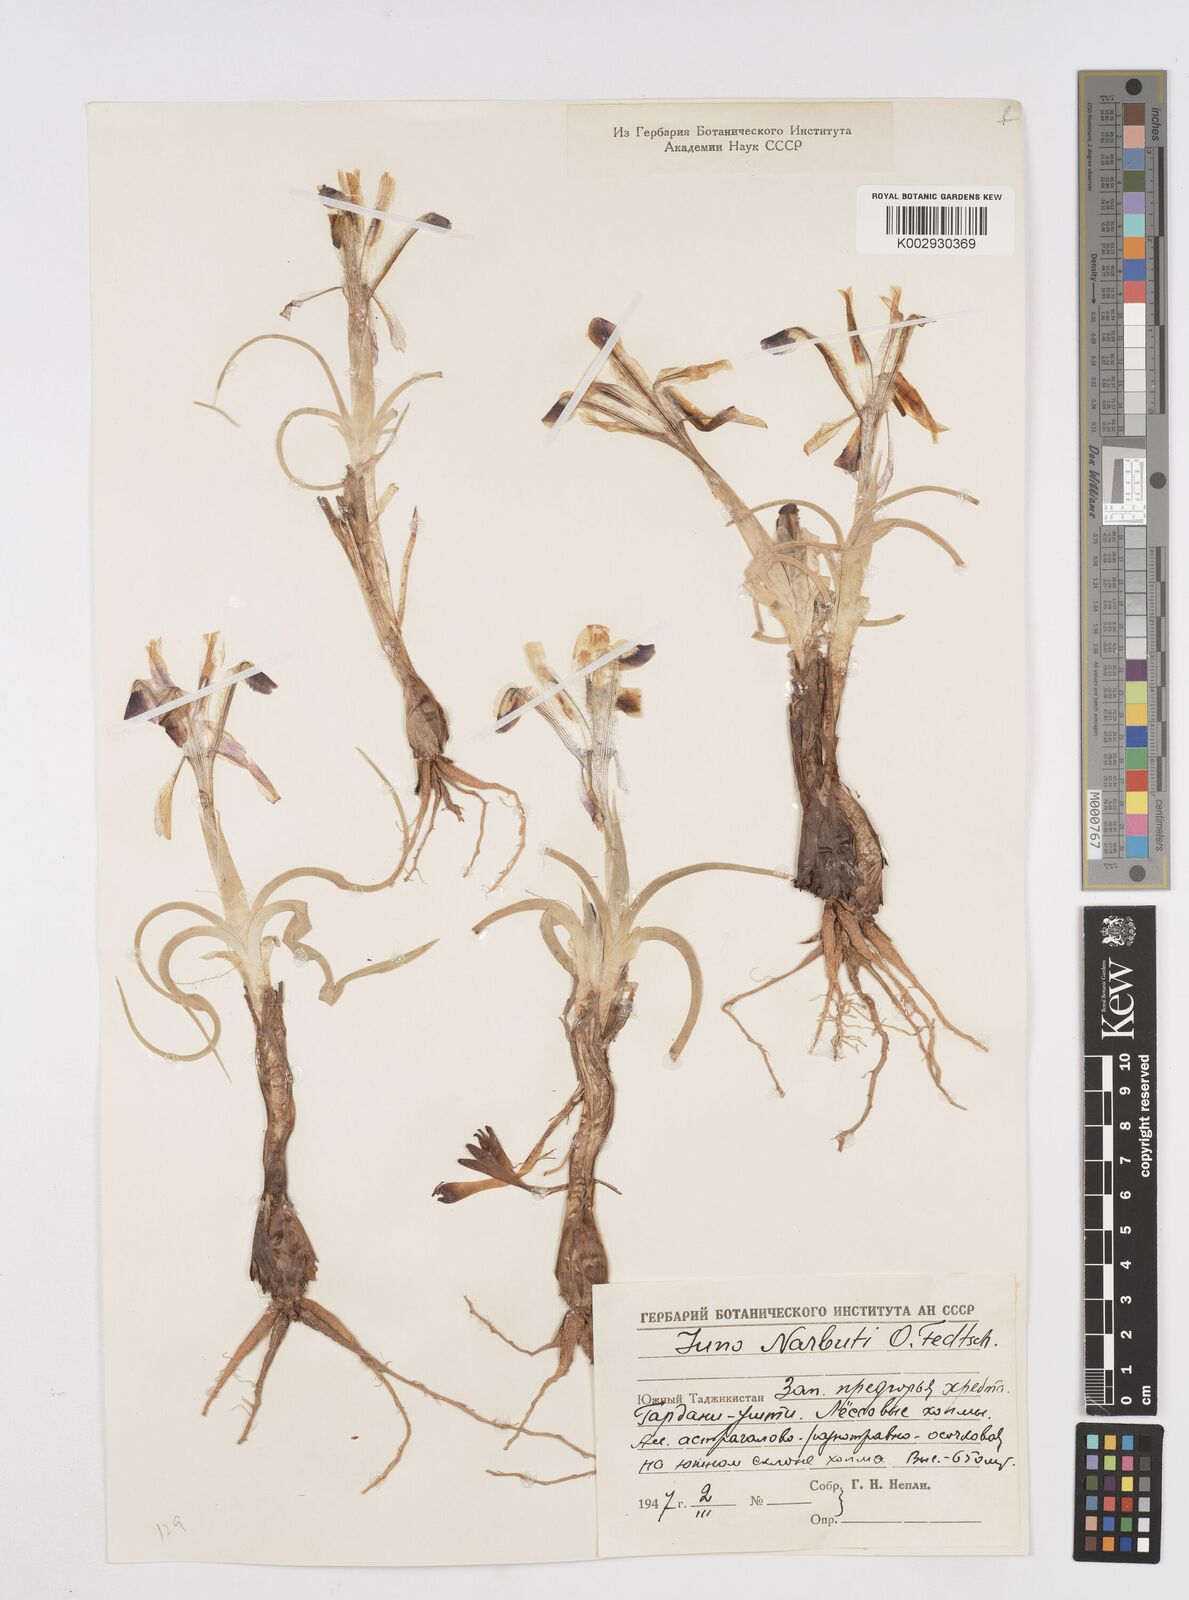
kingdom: Plantae
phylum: Tracheophyta
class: Liliopsida
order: Asparagales
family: Iridaceae
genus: Iris
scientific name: Iris narbutii
